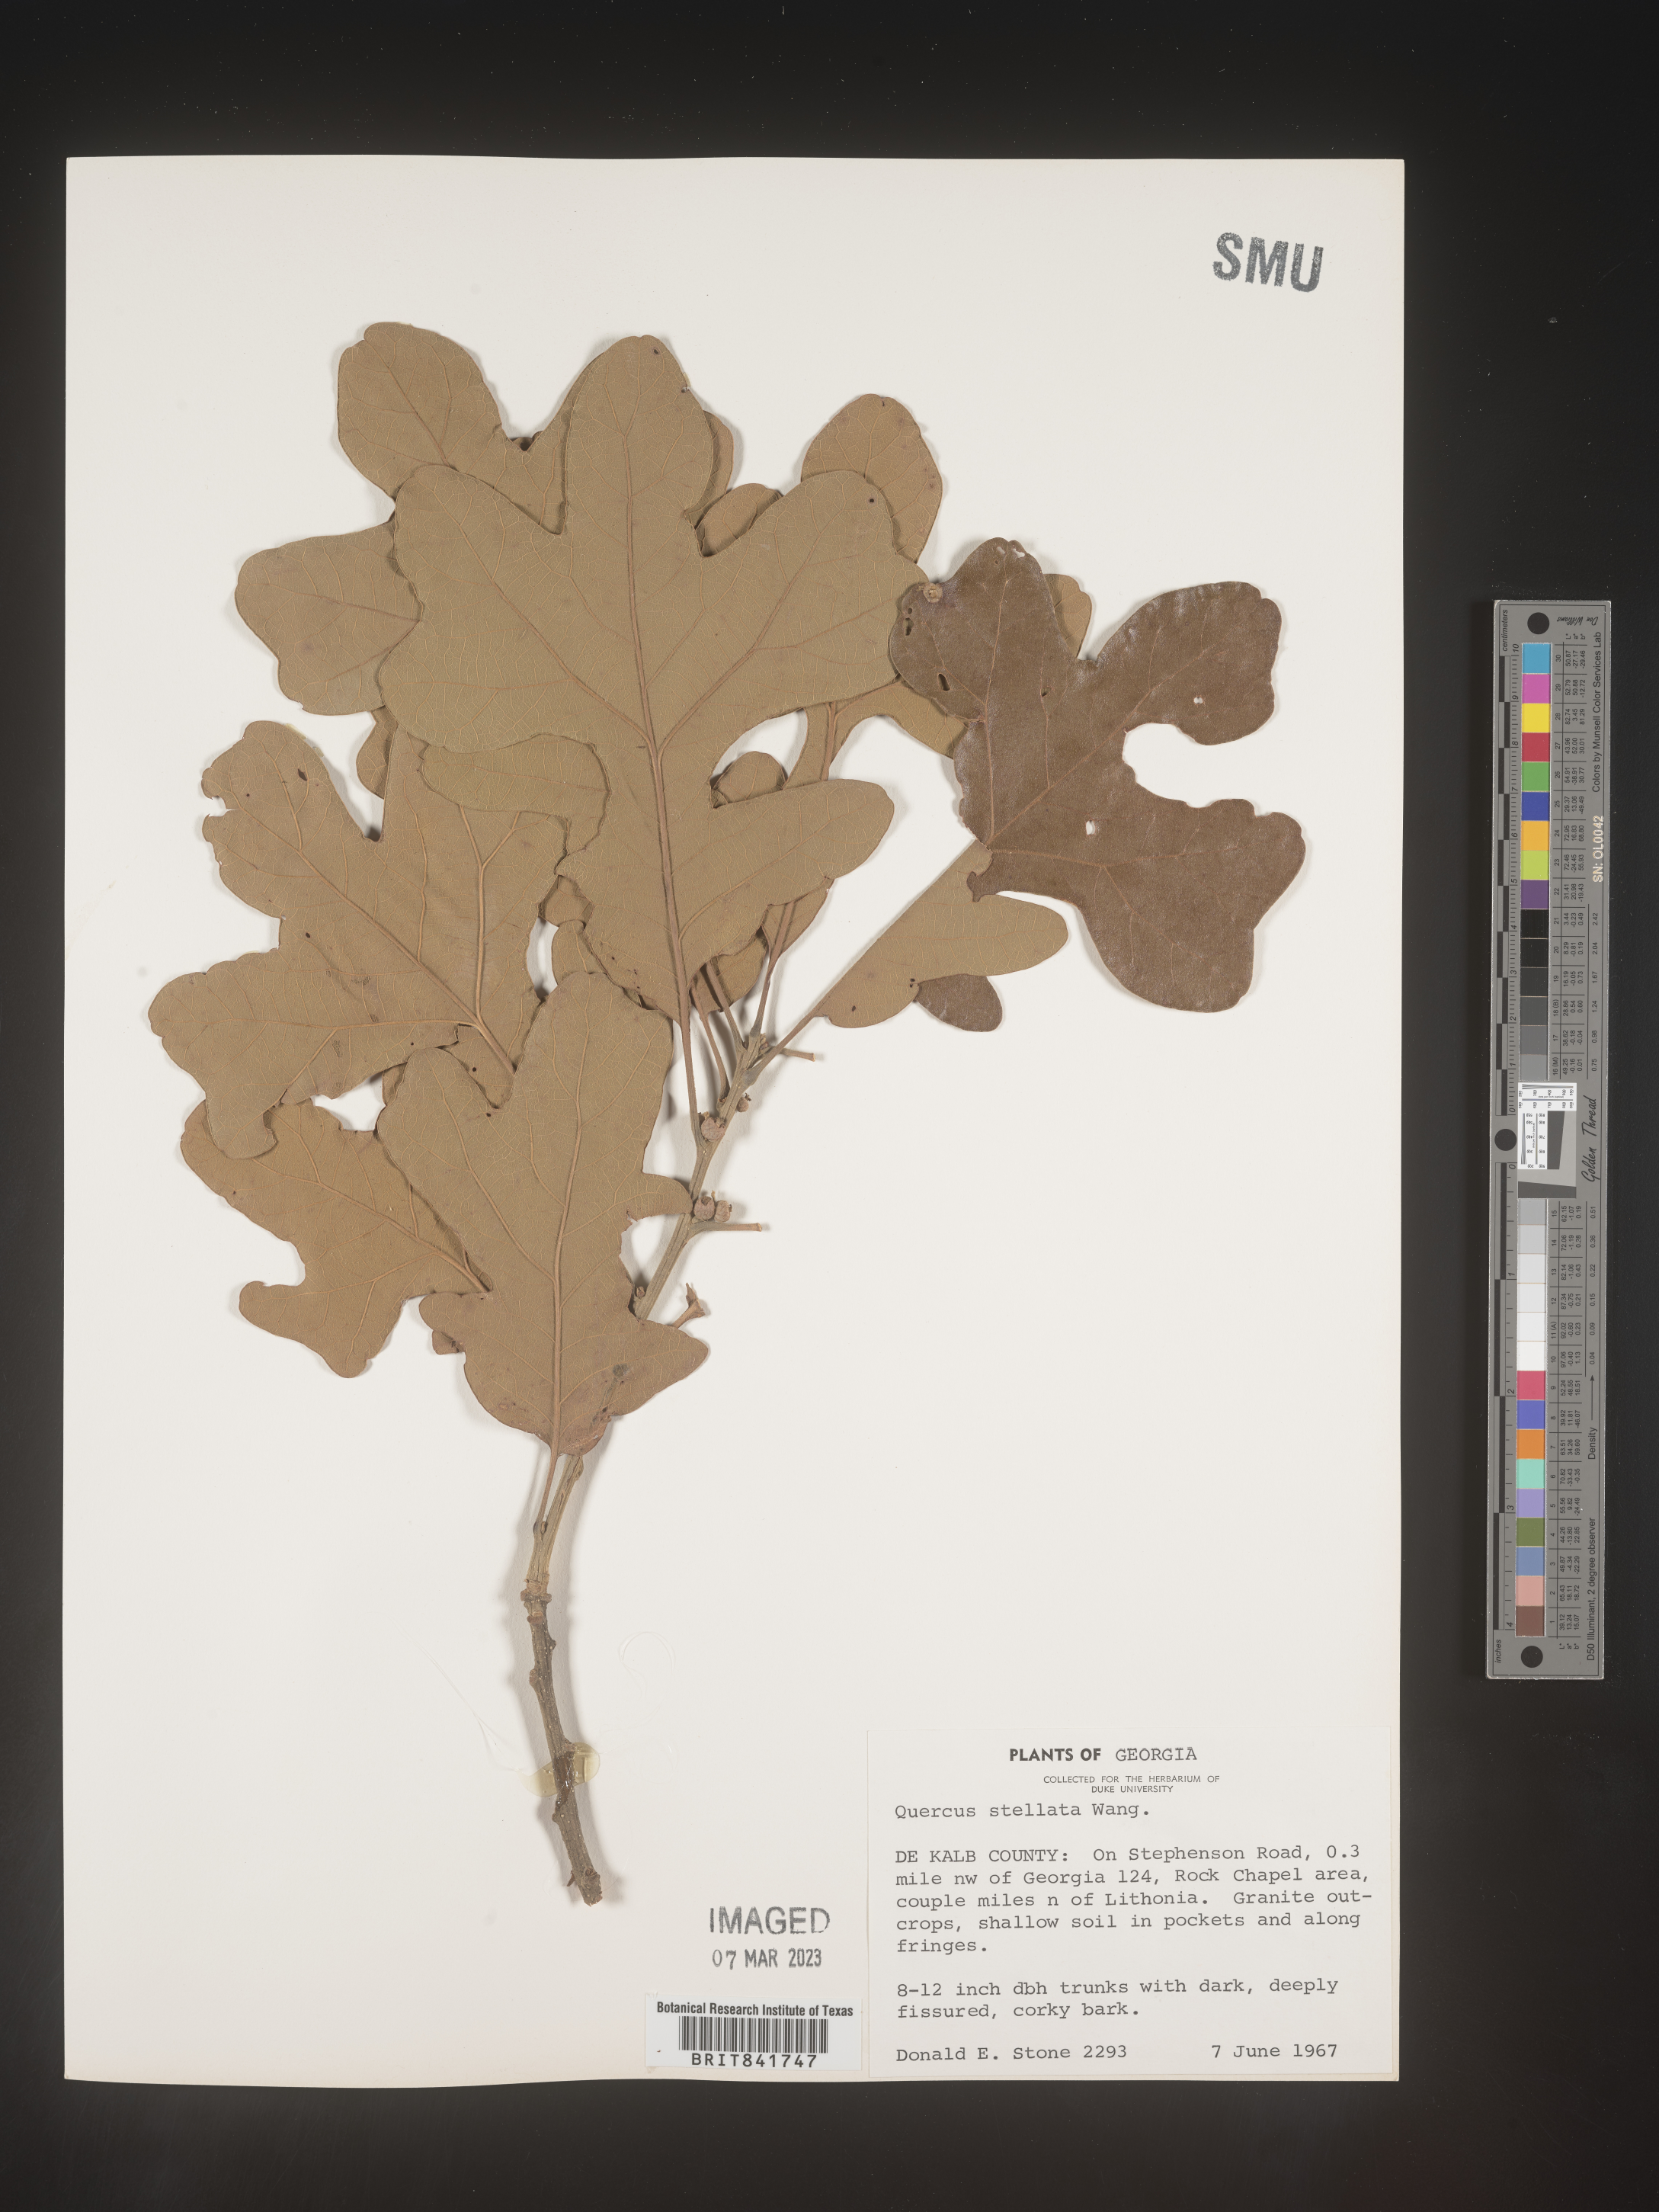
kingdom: Plantae
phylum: Tracheophyta
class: Magnoliopsida
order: Fagales
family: Fagaceae
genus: Quercus
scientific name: Quercus stellata
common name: Post oak
